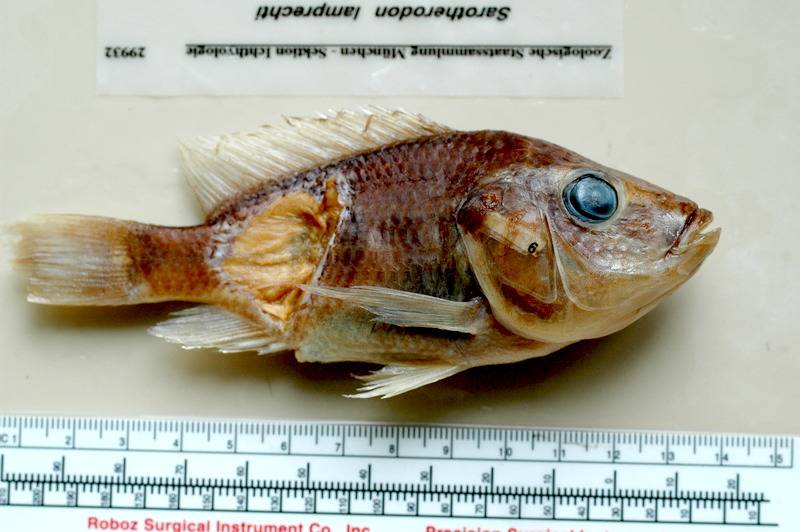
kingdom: Animalia
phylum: Chordata
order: Perciformes
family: Cichlidae
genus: Sarotherodon
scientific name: Sarotherodon lamprechti
